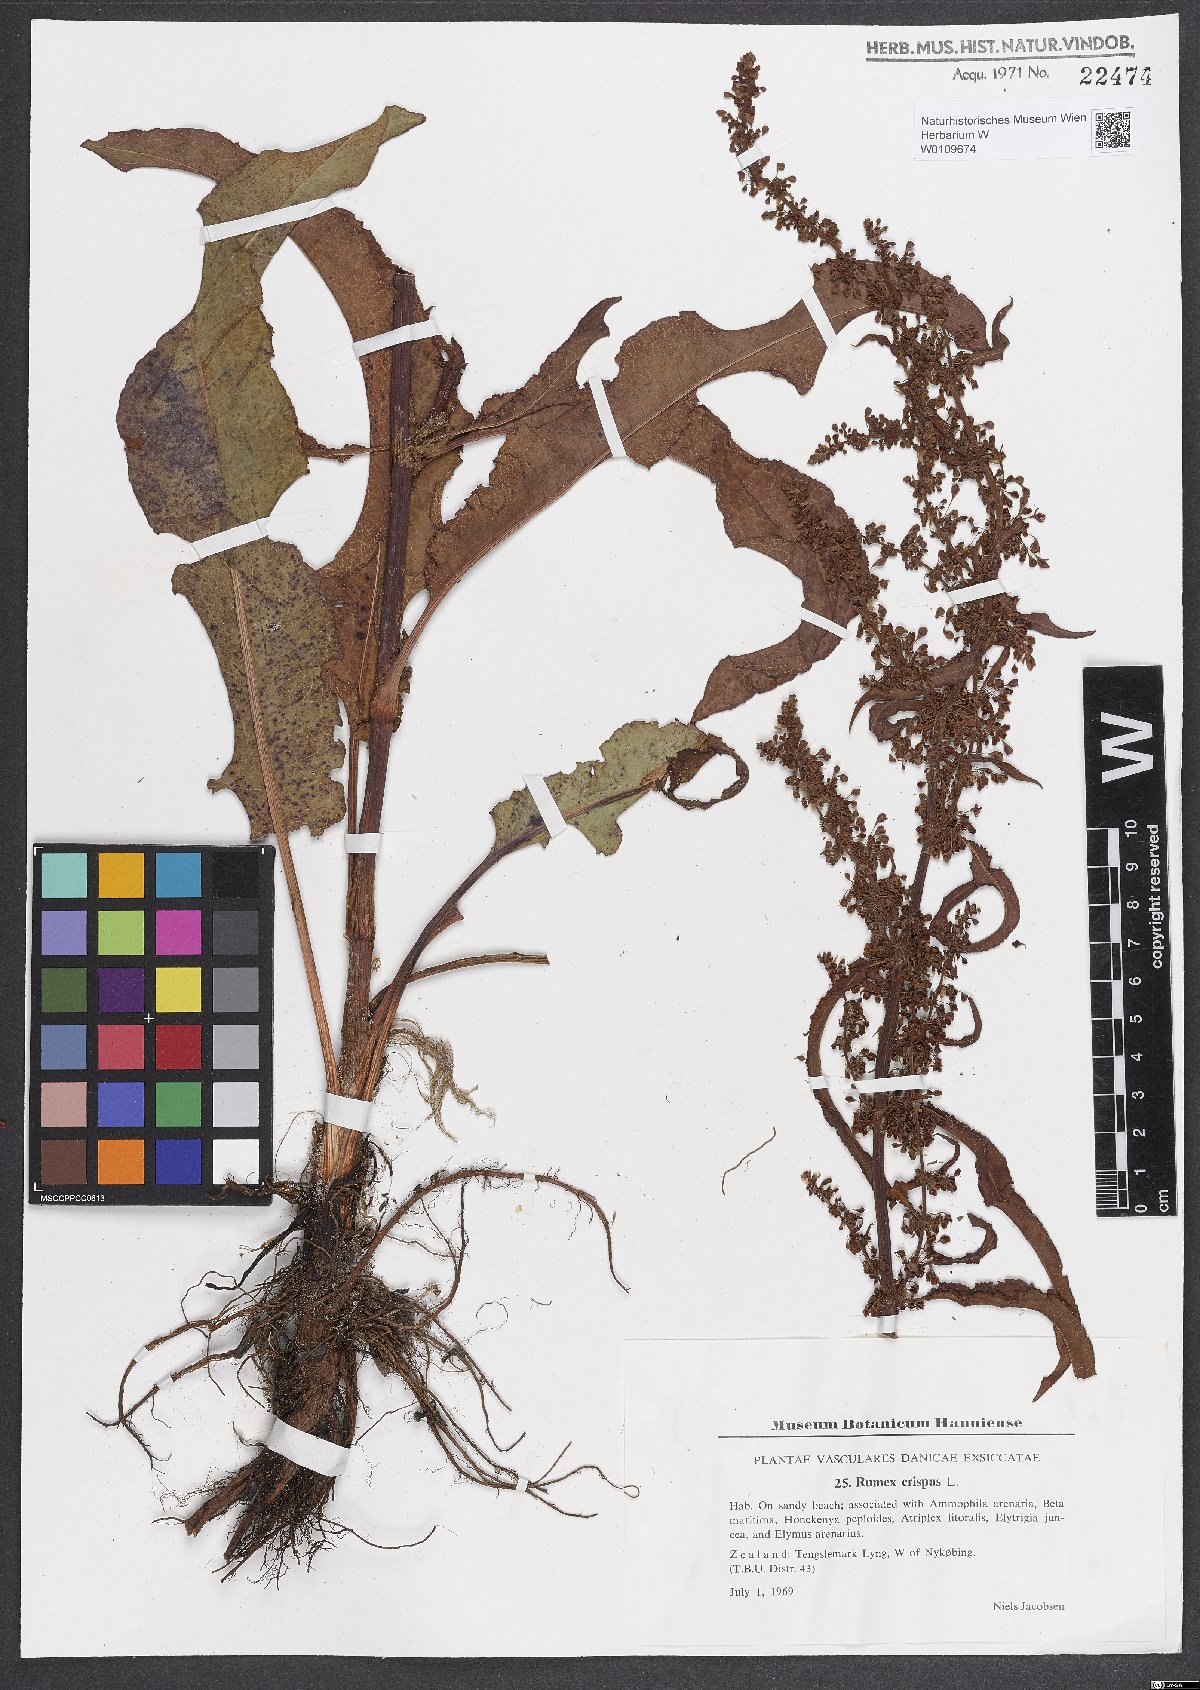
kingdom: Plantae
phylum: Tracheophyta
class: Magnoliopsida
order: Caryophyllales
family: Polygonaceae
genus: Rumex
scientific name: Rumex crispus
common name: Curled dock
